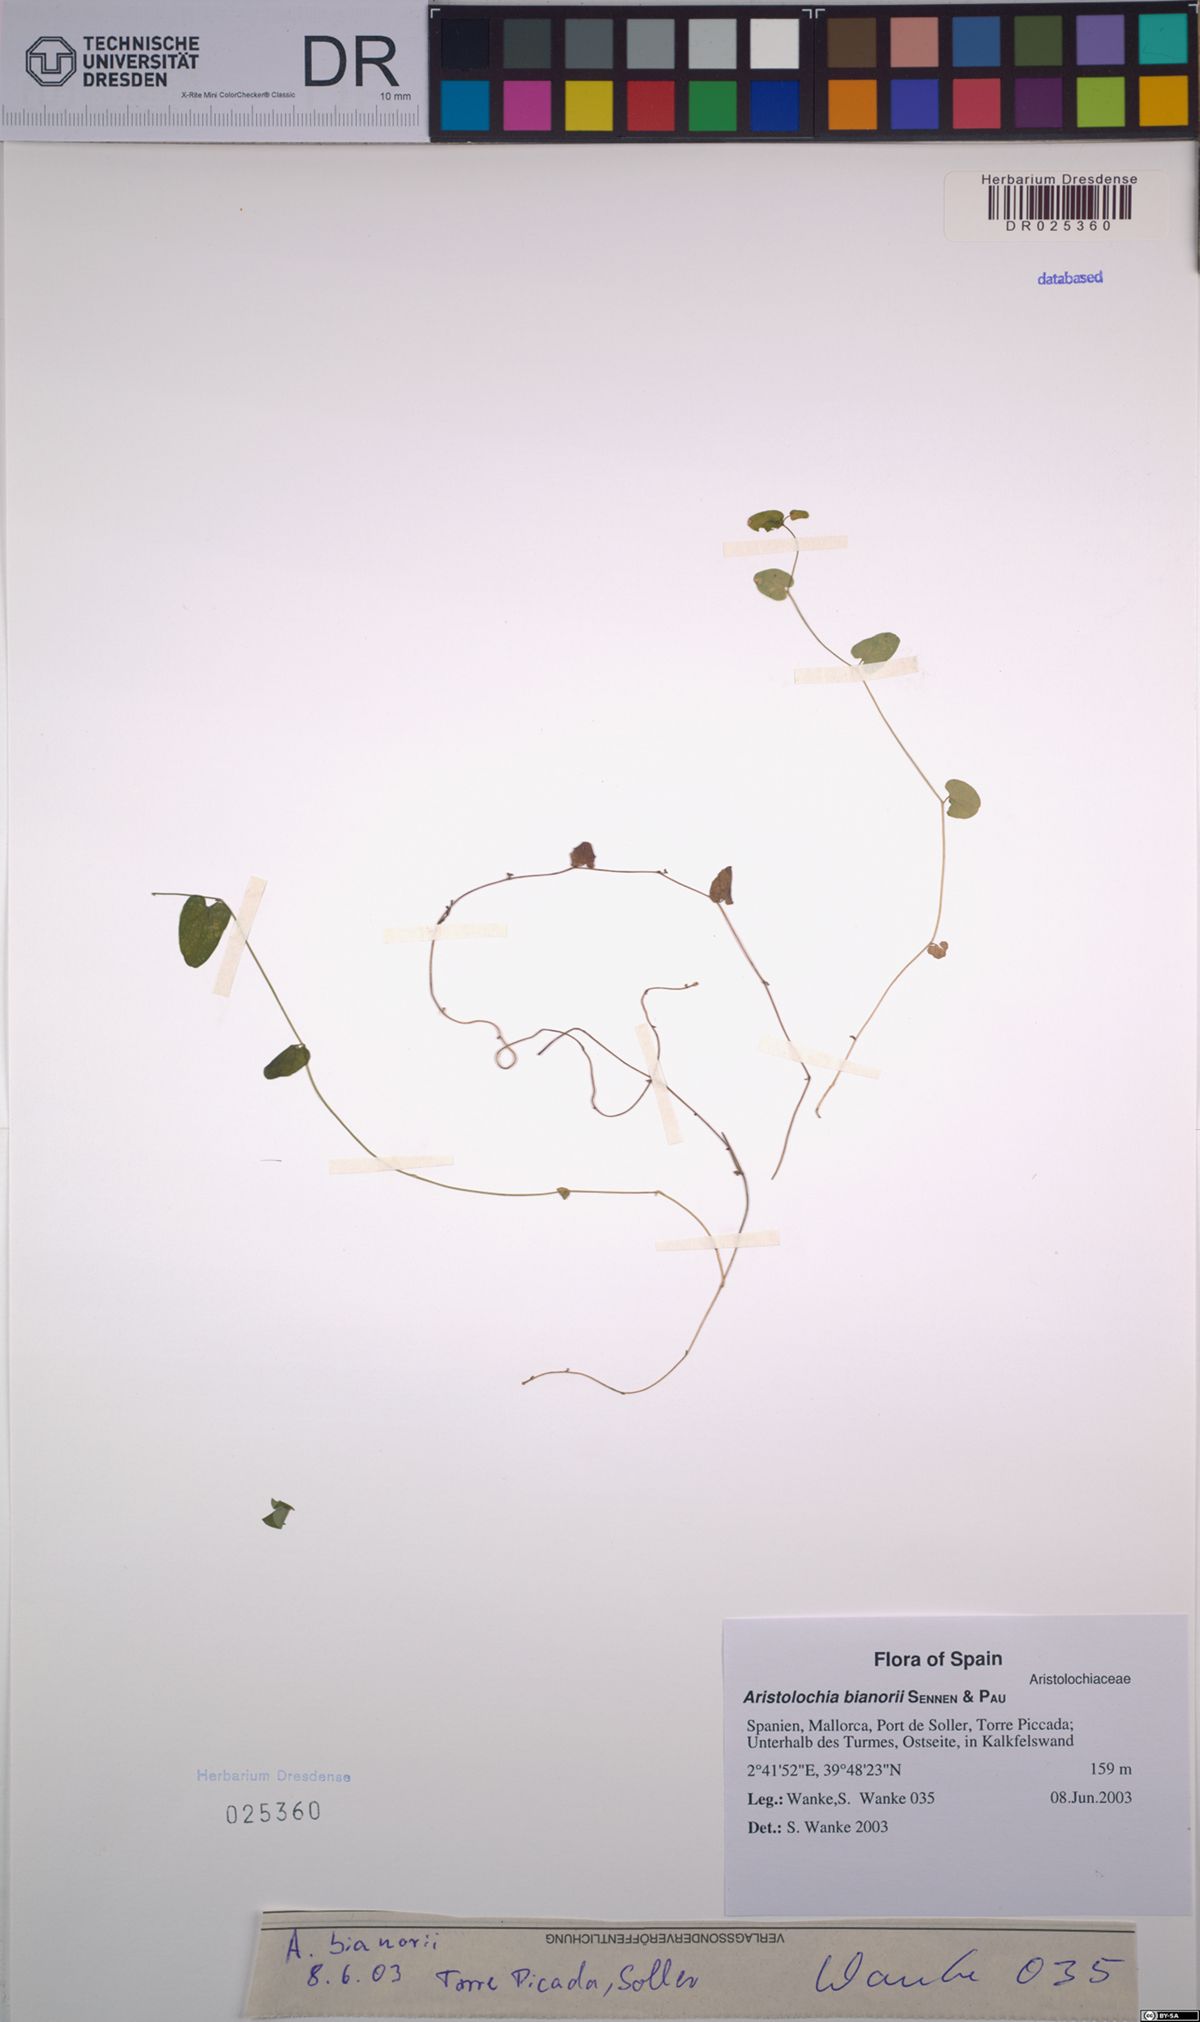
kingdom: Plantae
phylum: Tracheophyta
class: Magnoliopsida
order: Piperales
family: Aristolochiaceae
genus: Aristolochia
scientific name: Aristolochia bianorii
